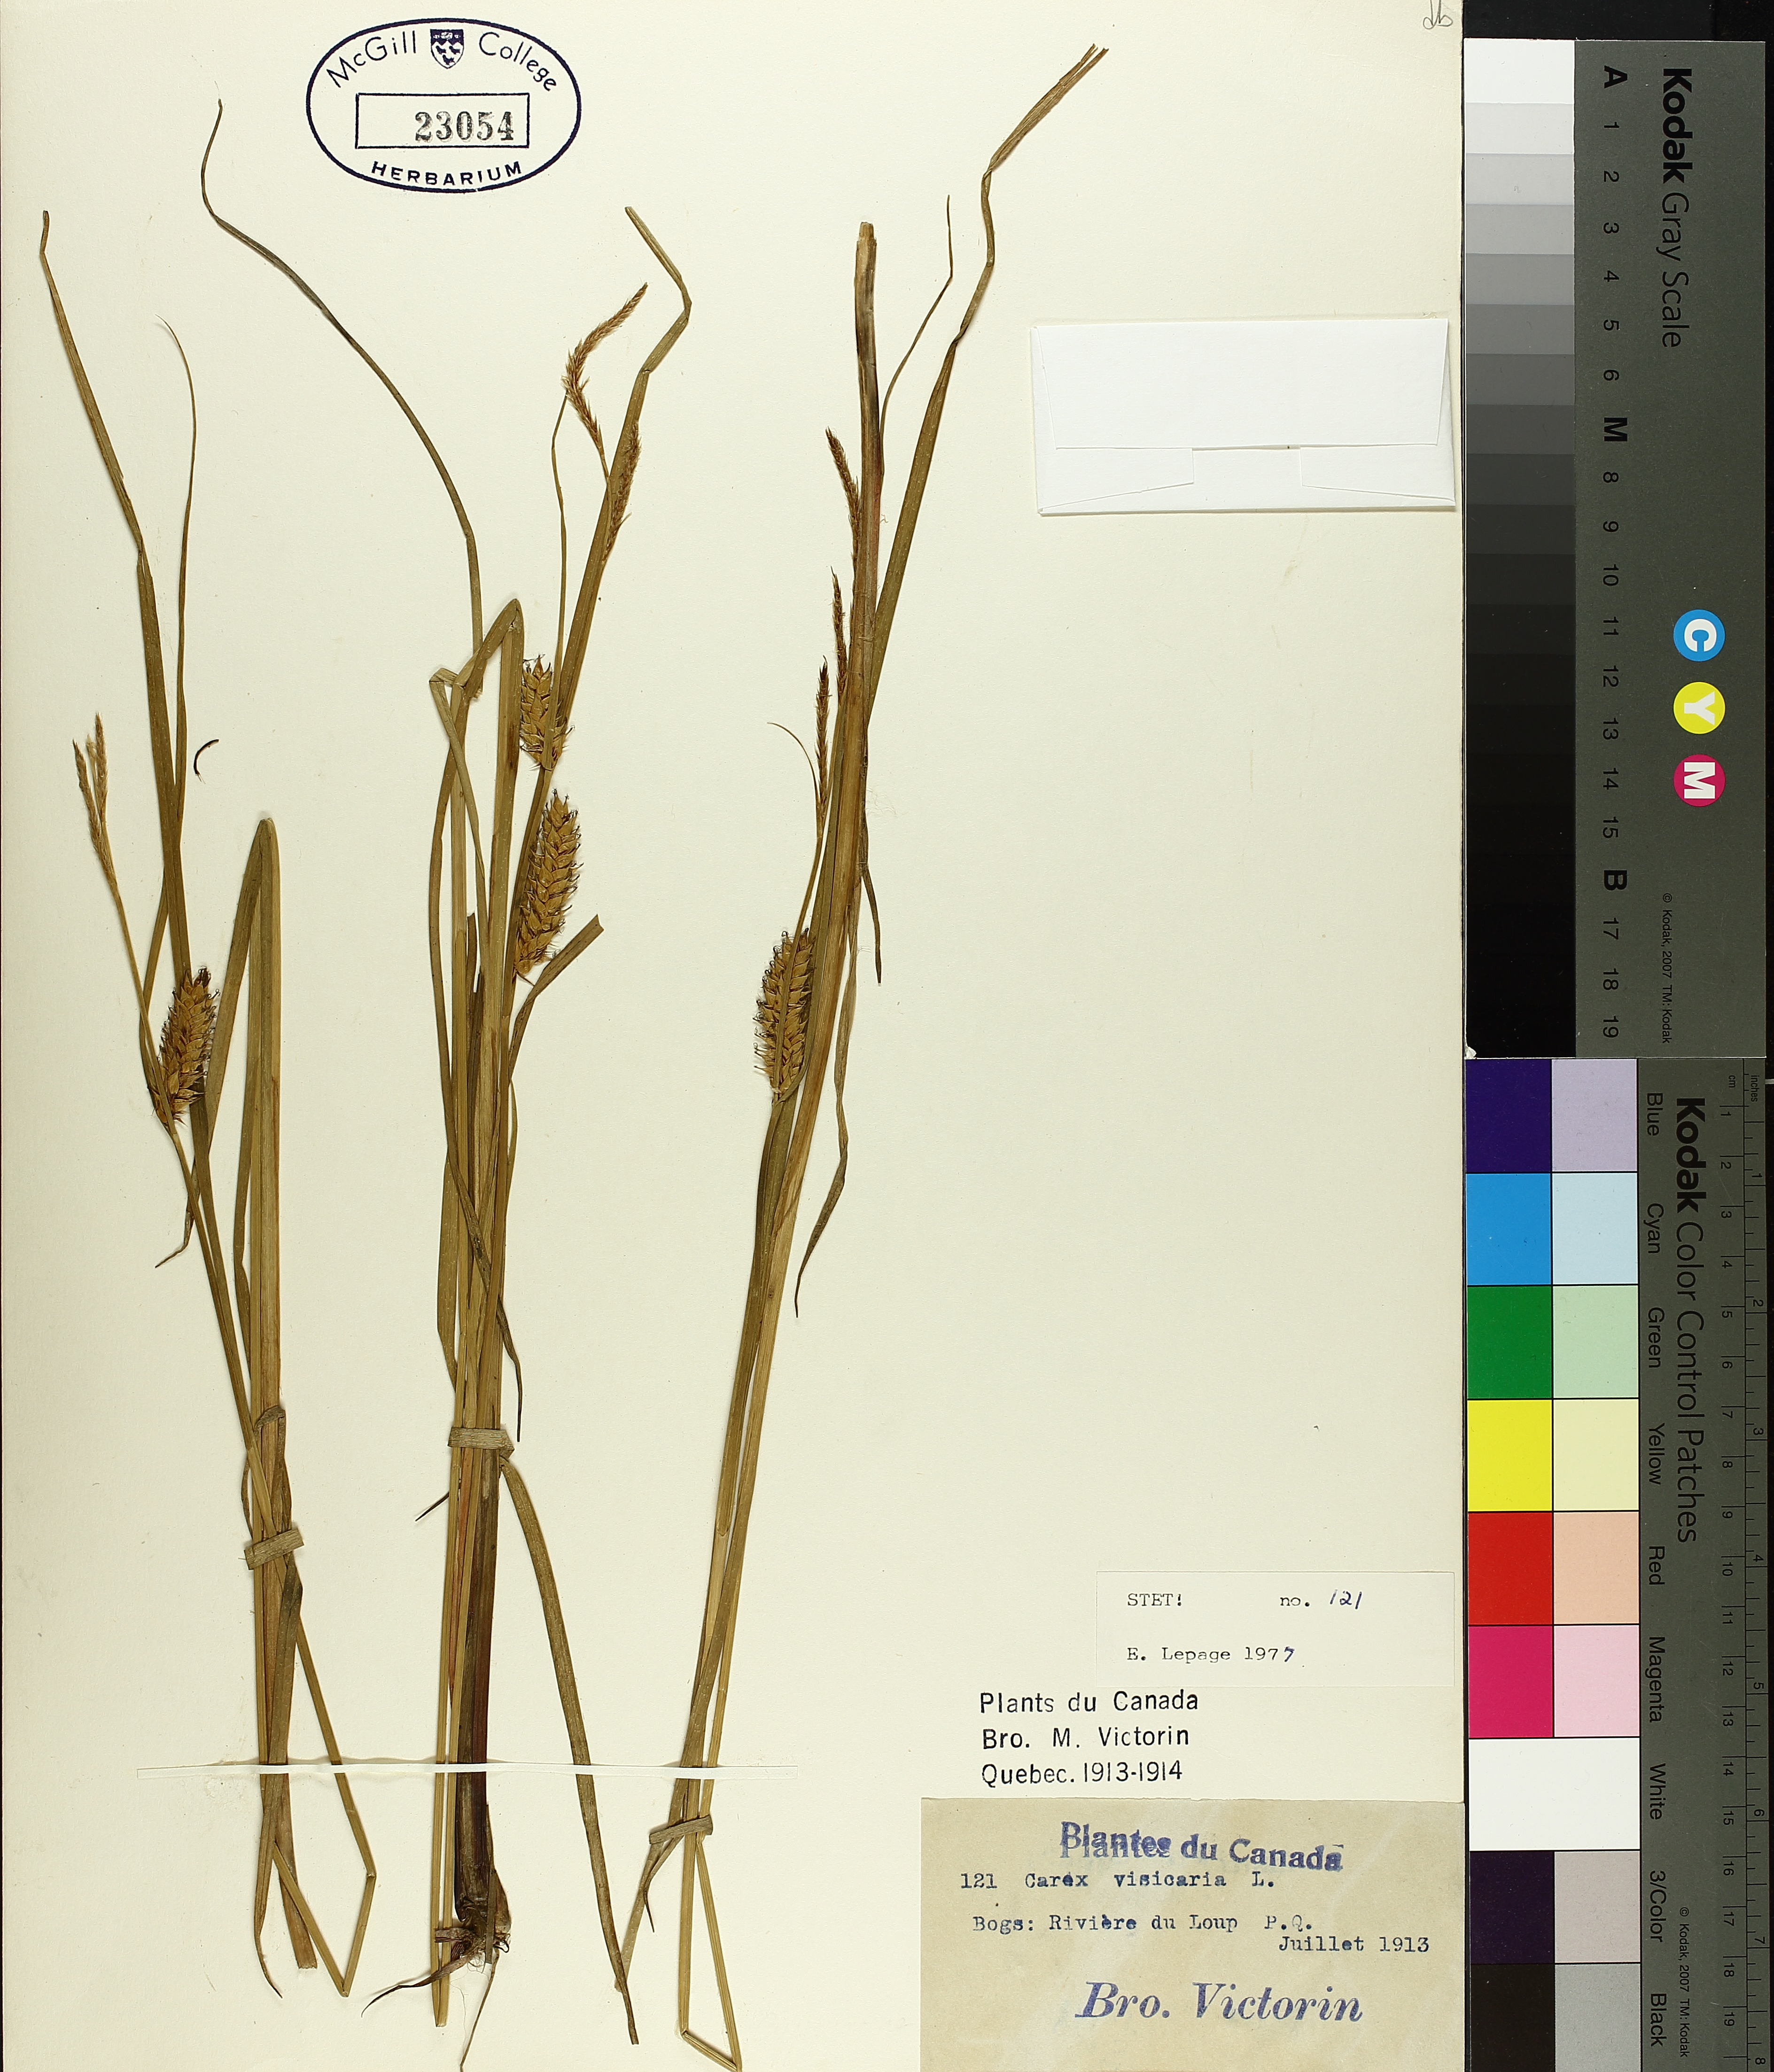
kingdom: Plantae
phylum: Tracheophyta
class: Liliopsida
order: Poales
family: Cyperaceae
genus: Carex
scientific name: Carex vesicaria
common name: Bladder-sedge
